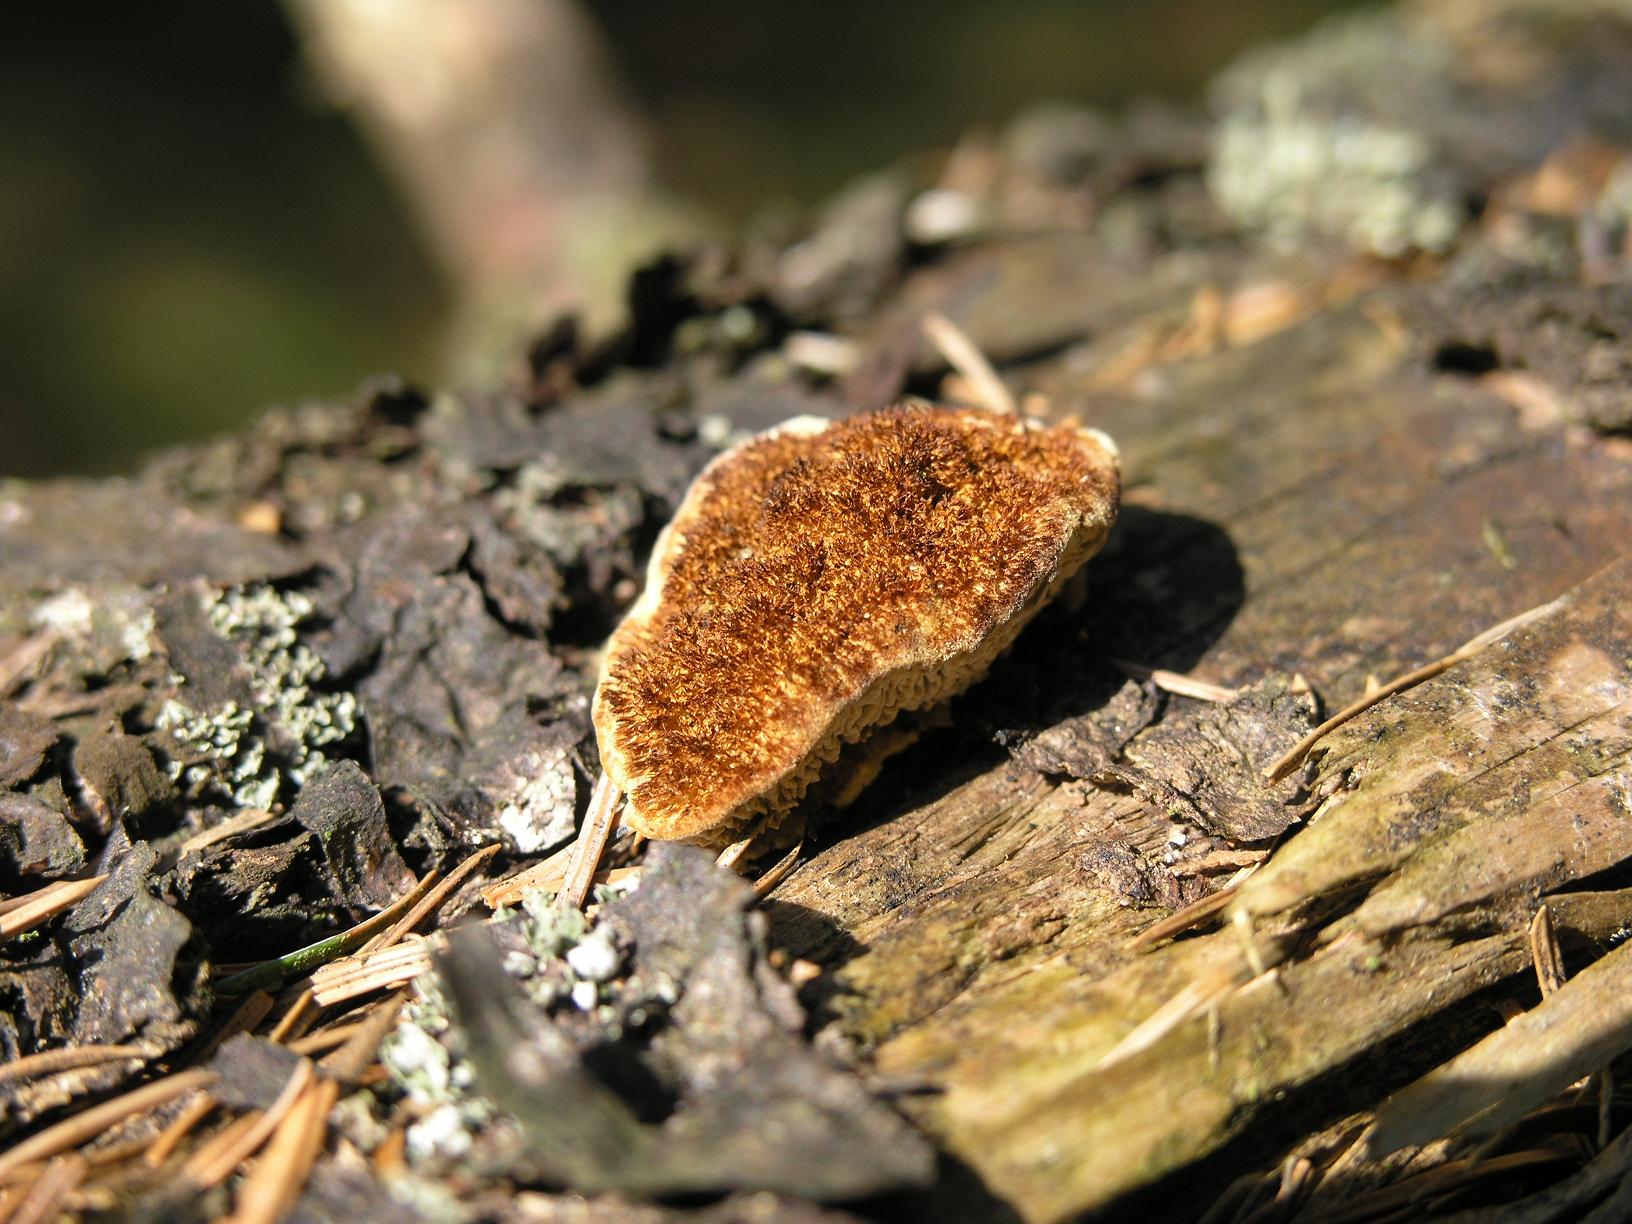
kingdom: Fungi
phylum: Basidiomycota
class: Agaricomycetes
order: Gloeophyllales
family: Gloeophyllaceae
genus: Gloeophyllum
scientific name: Gloeophyllum sepiarium
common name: fyrre-korkhat
